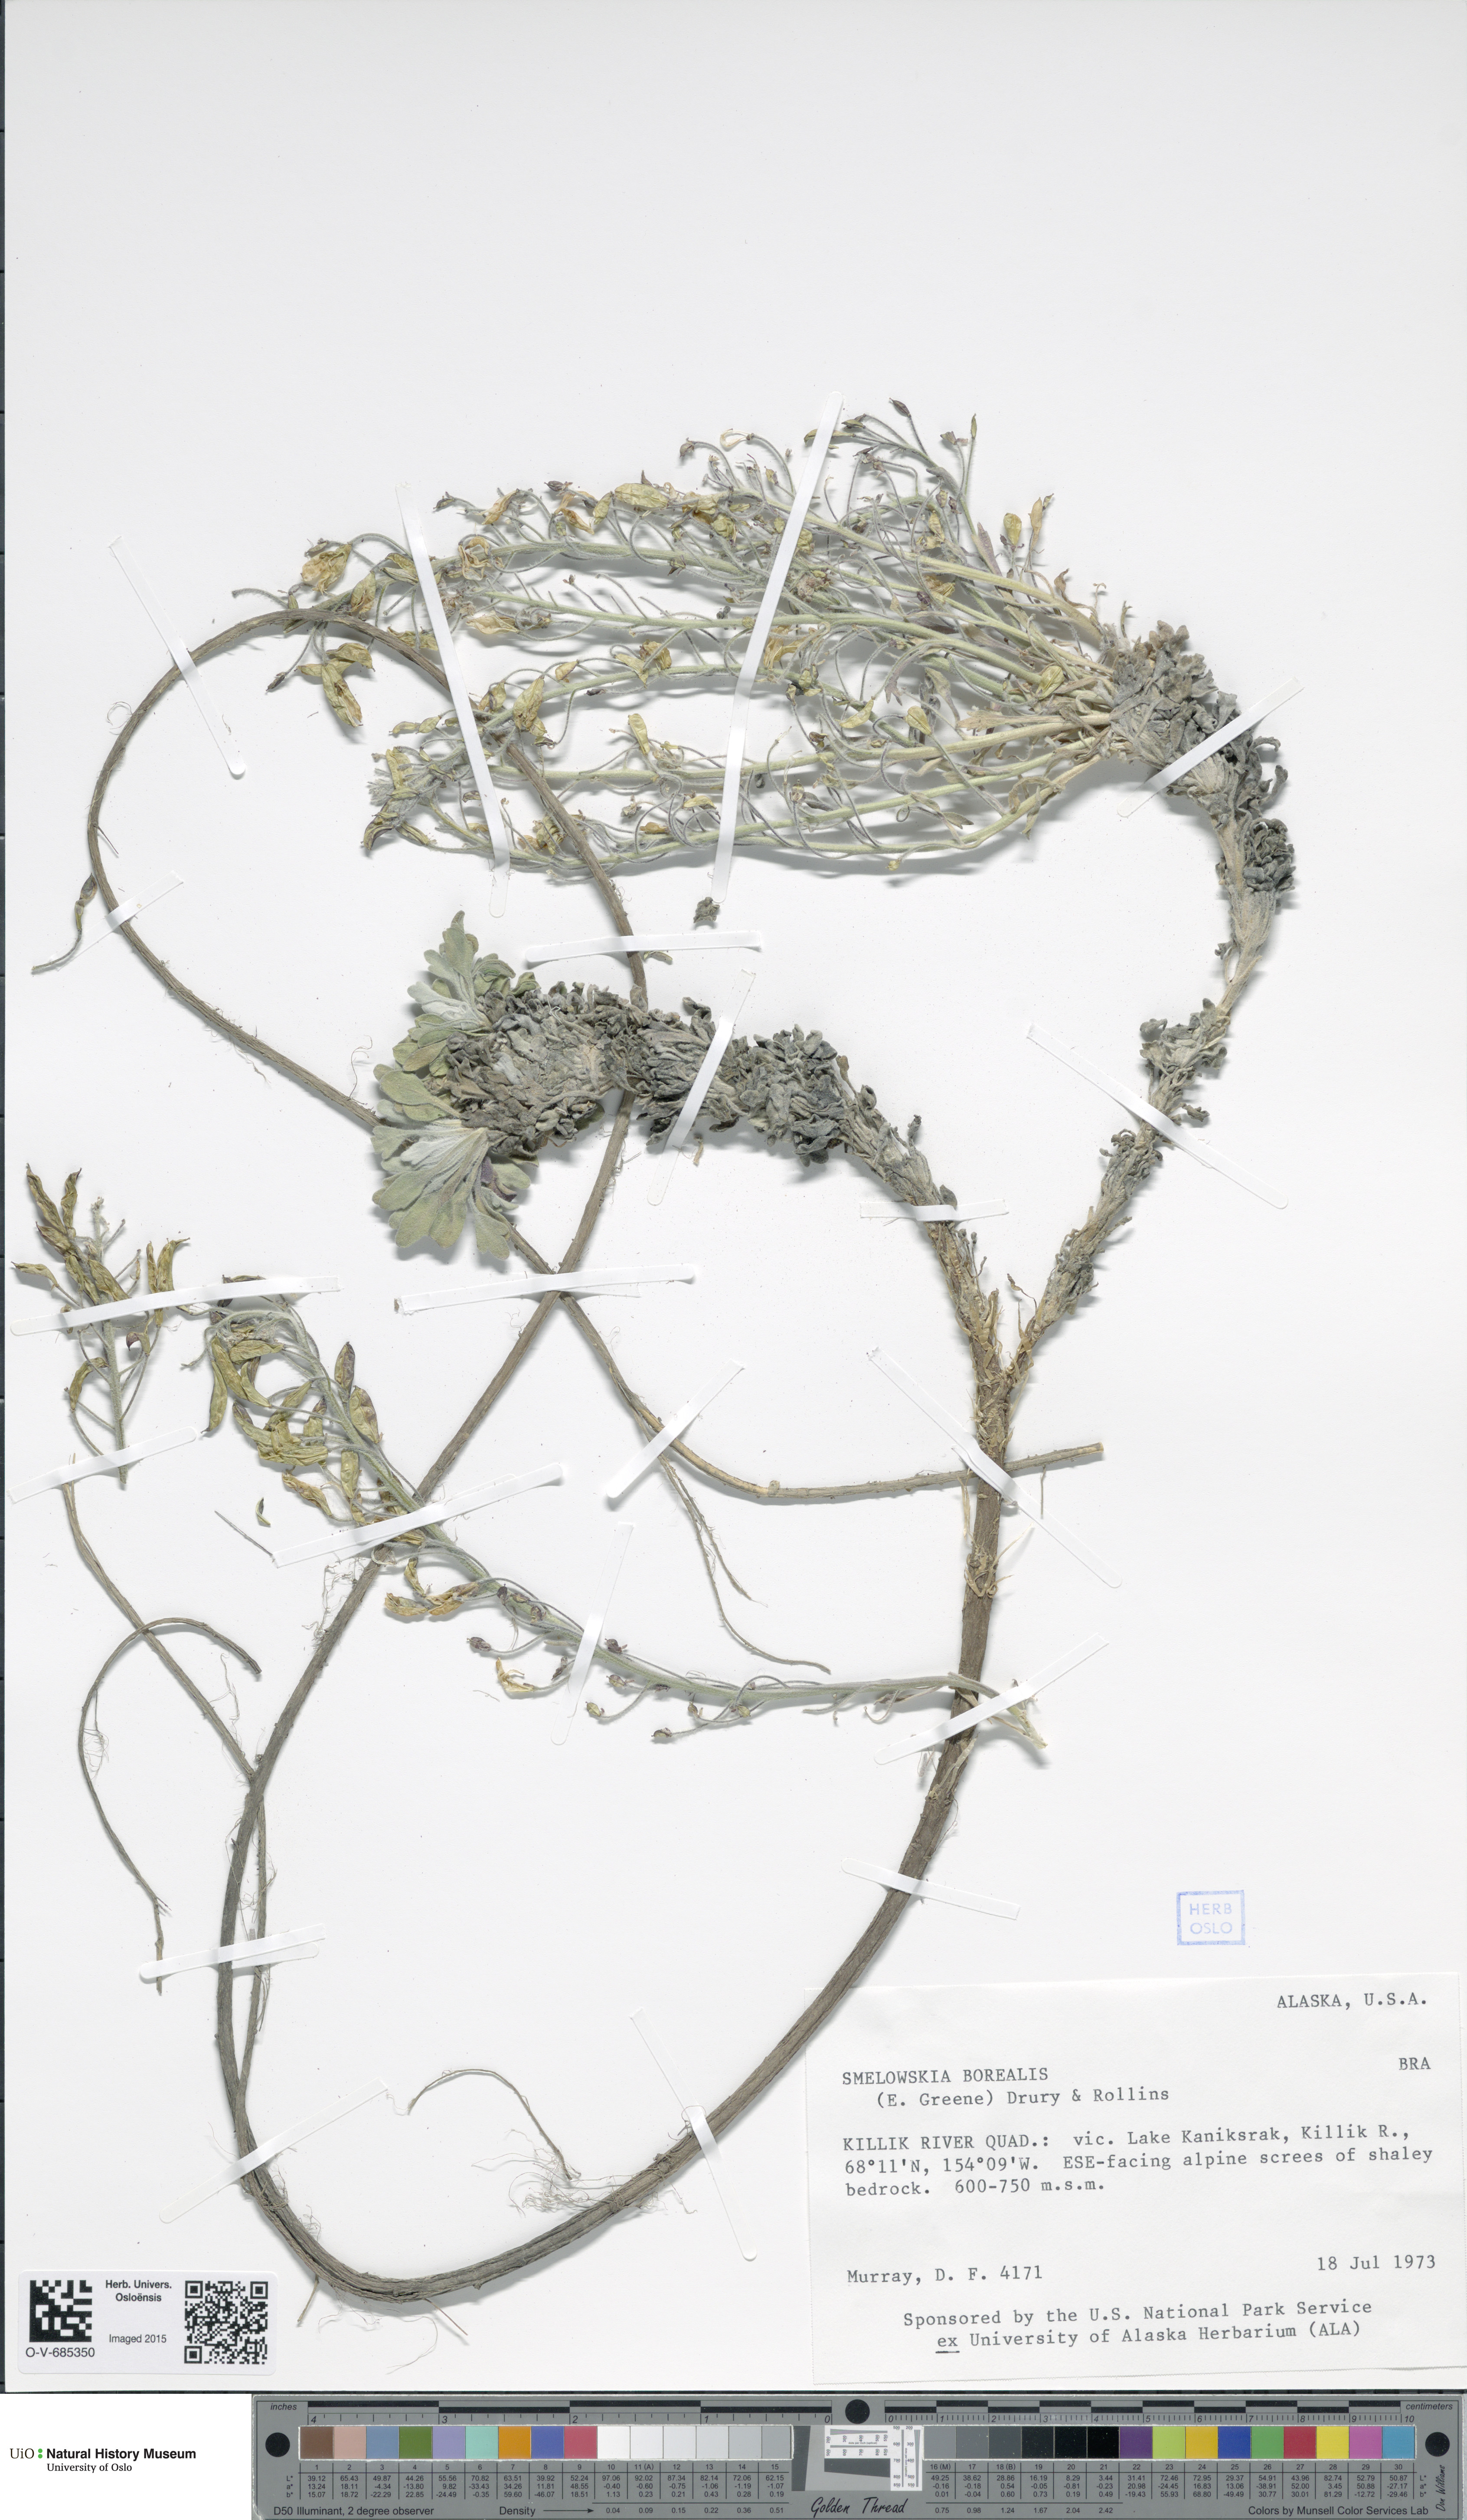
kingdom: Plantae
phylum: Tracheophyta
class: Magnoliopsida
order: Brassicales
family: Brassicaceae
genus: Smelowskia
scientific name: Smelowskia borealis
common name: False candytuft
